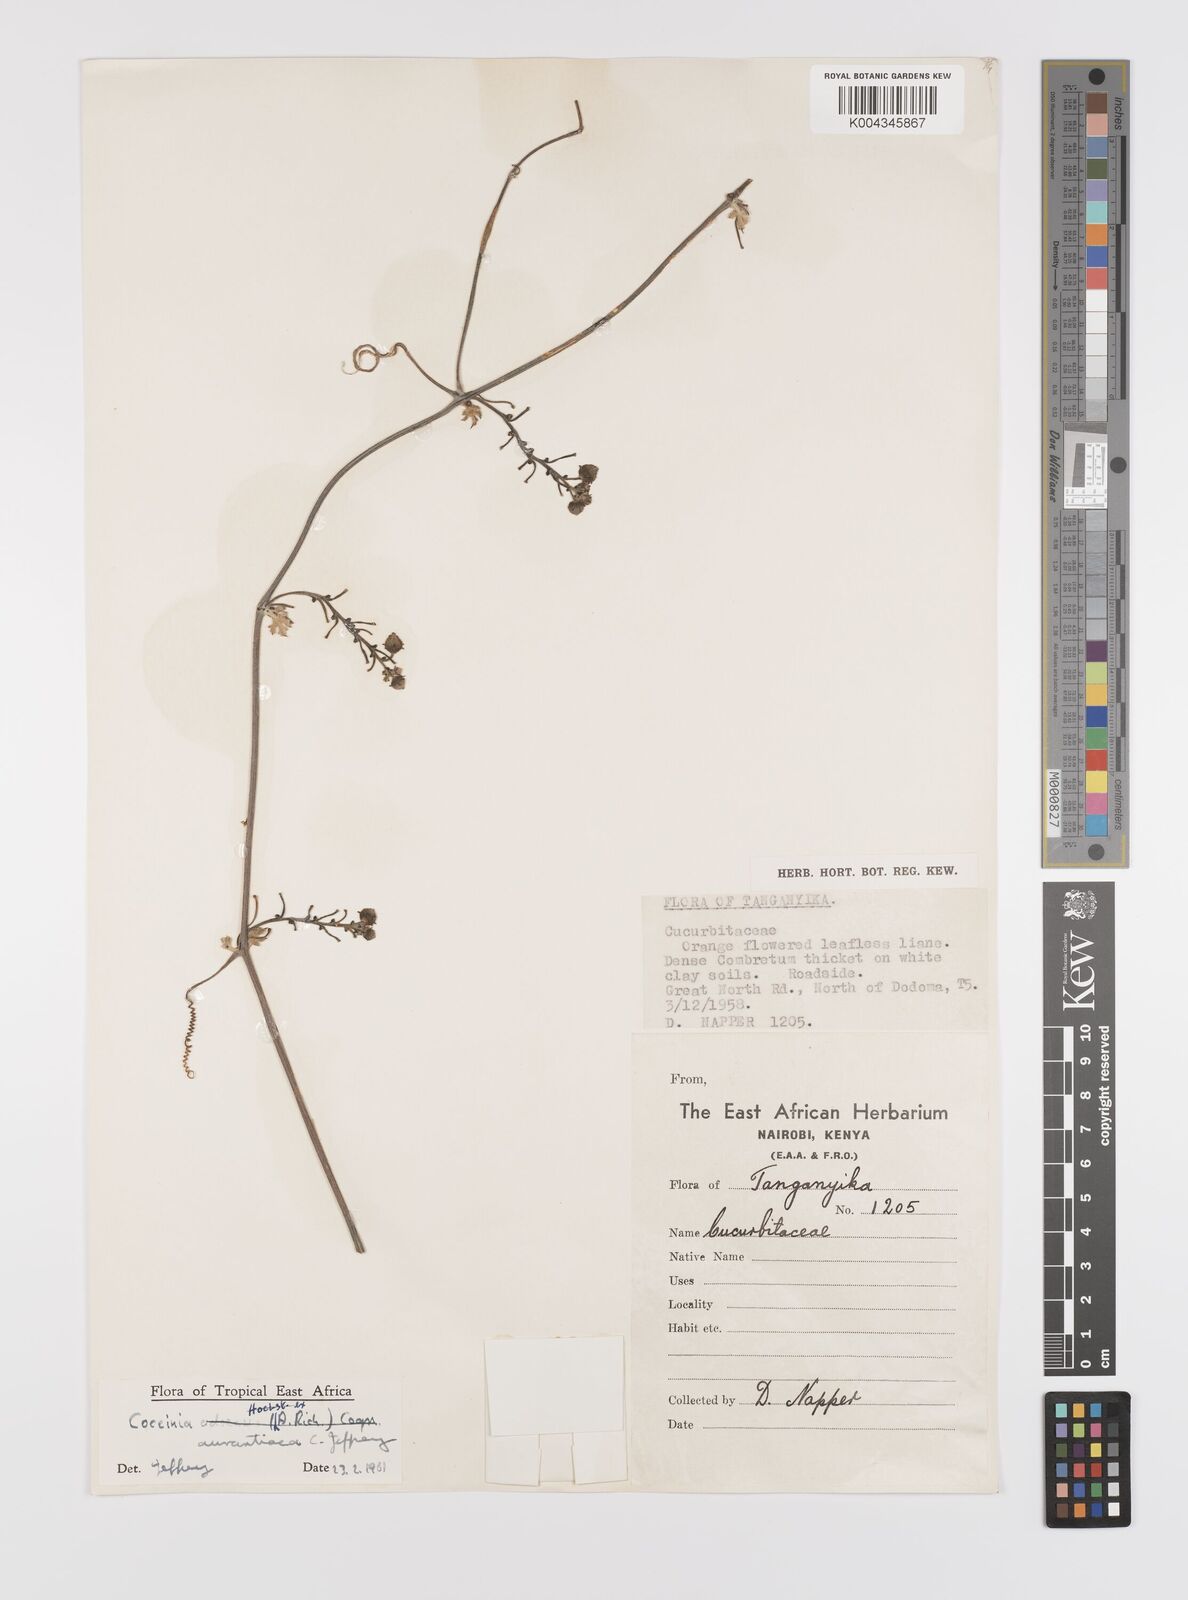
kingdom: Plantae
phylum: Tracheophyta
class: Magnoliopsida
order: Cucurbitales
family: Cucurbitaceae
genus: Coccinia
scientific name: Coccinia adoensis
